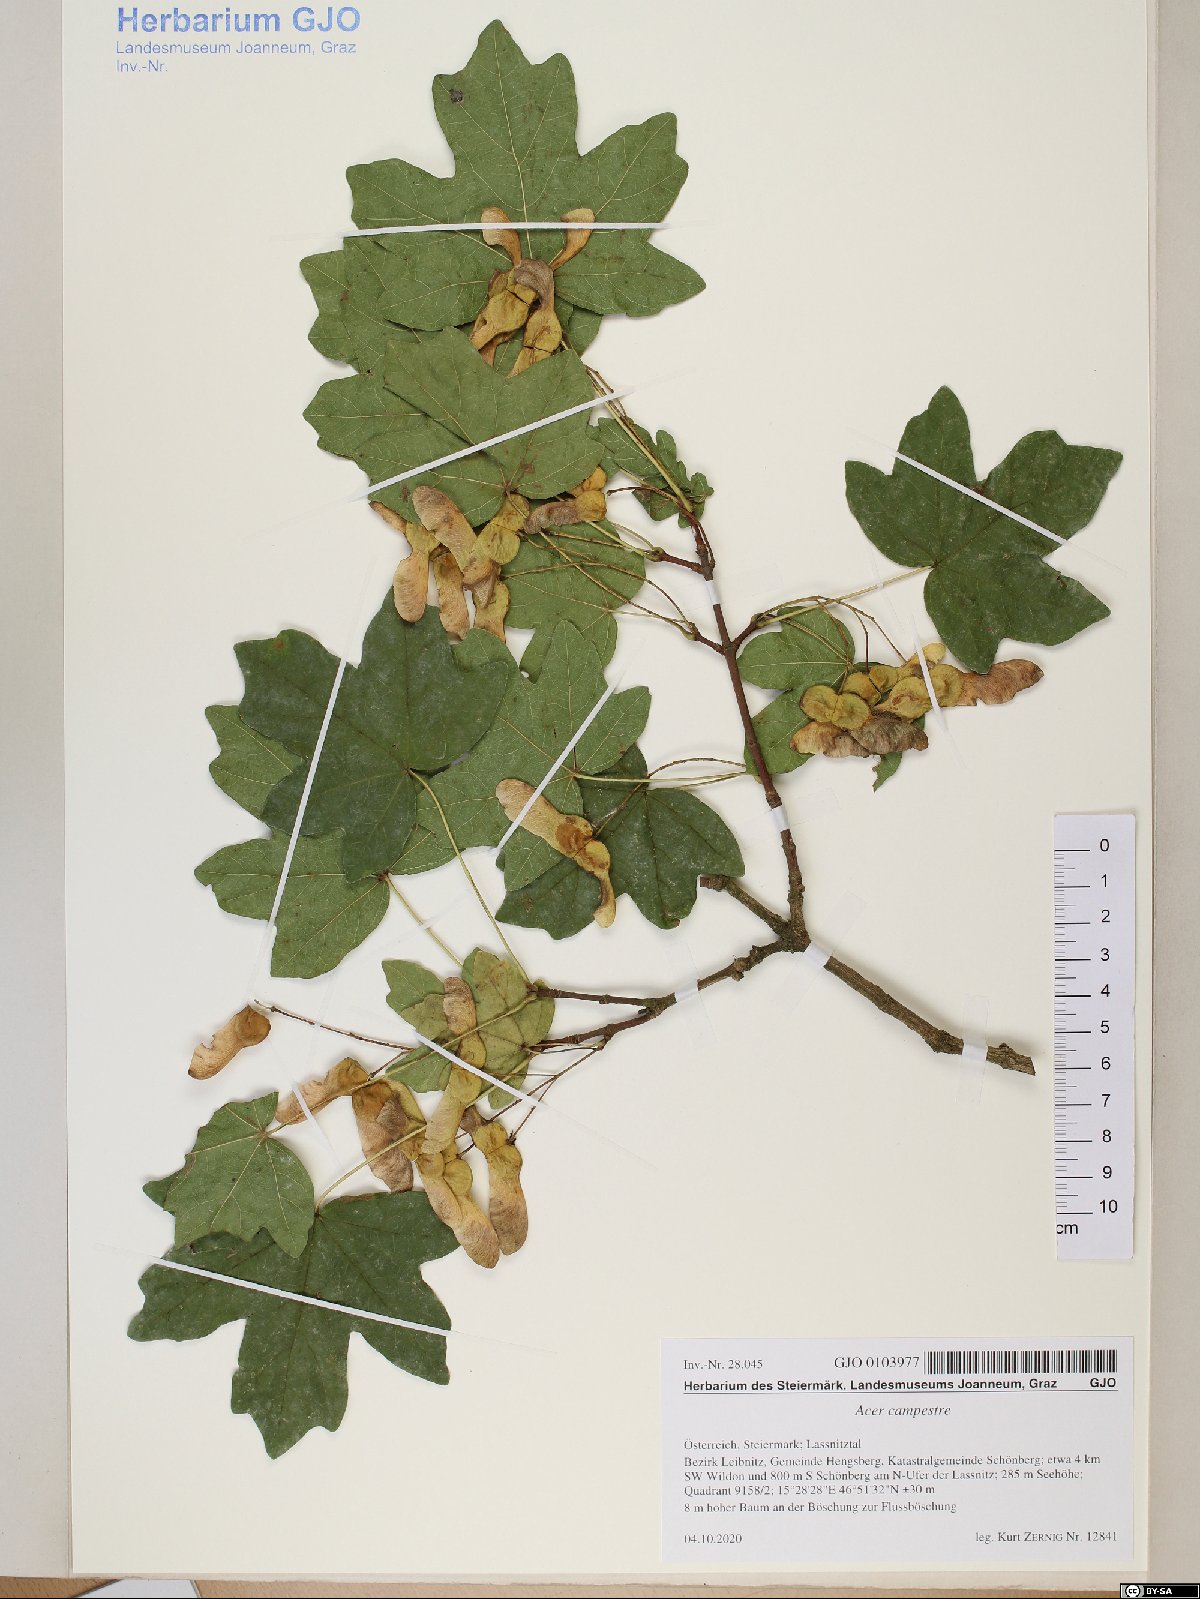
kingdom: Plantae
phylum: Tracheophyta
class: Magnoliopsida
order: Sapindales
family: Sapindaceae
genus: Acer
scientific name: Acer campestre
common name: Field maple
